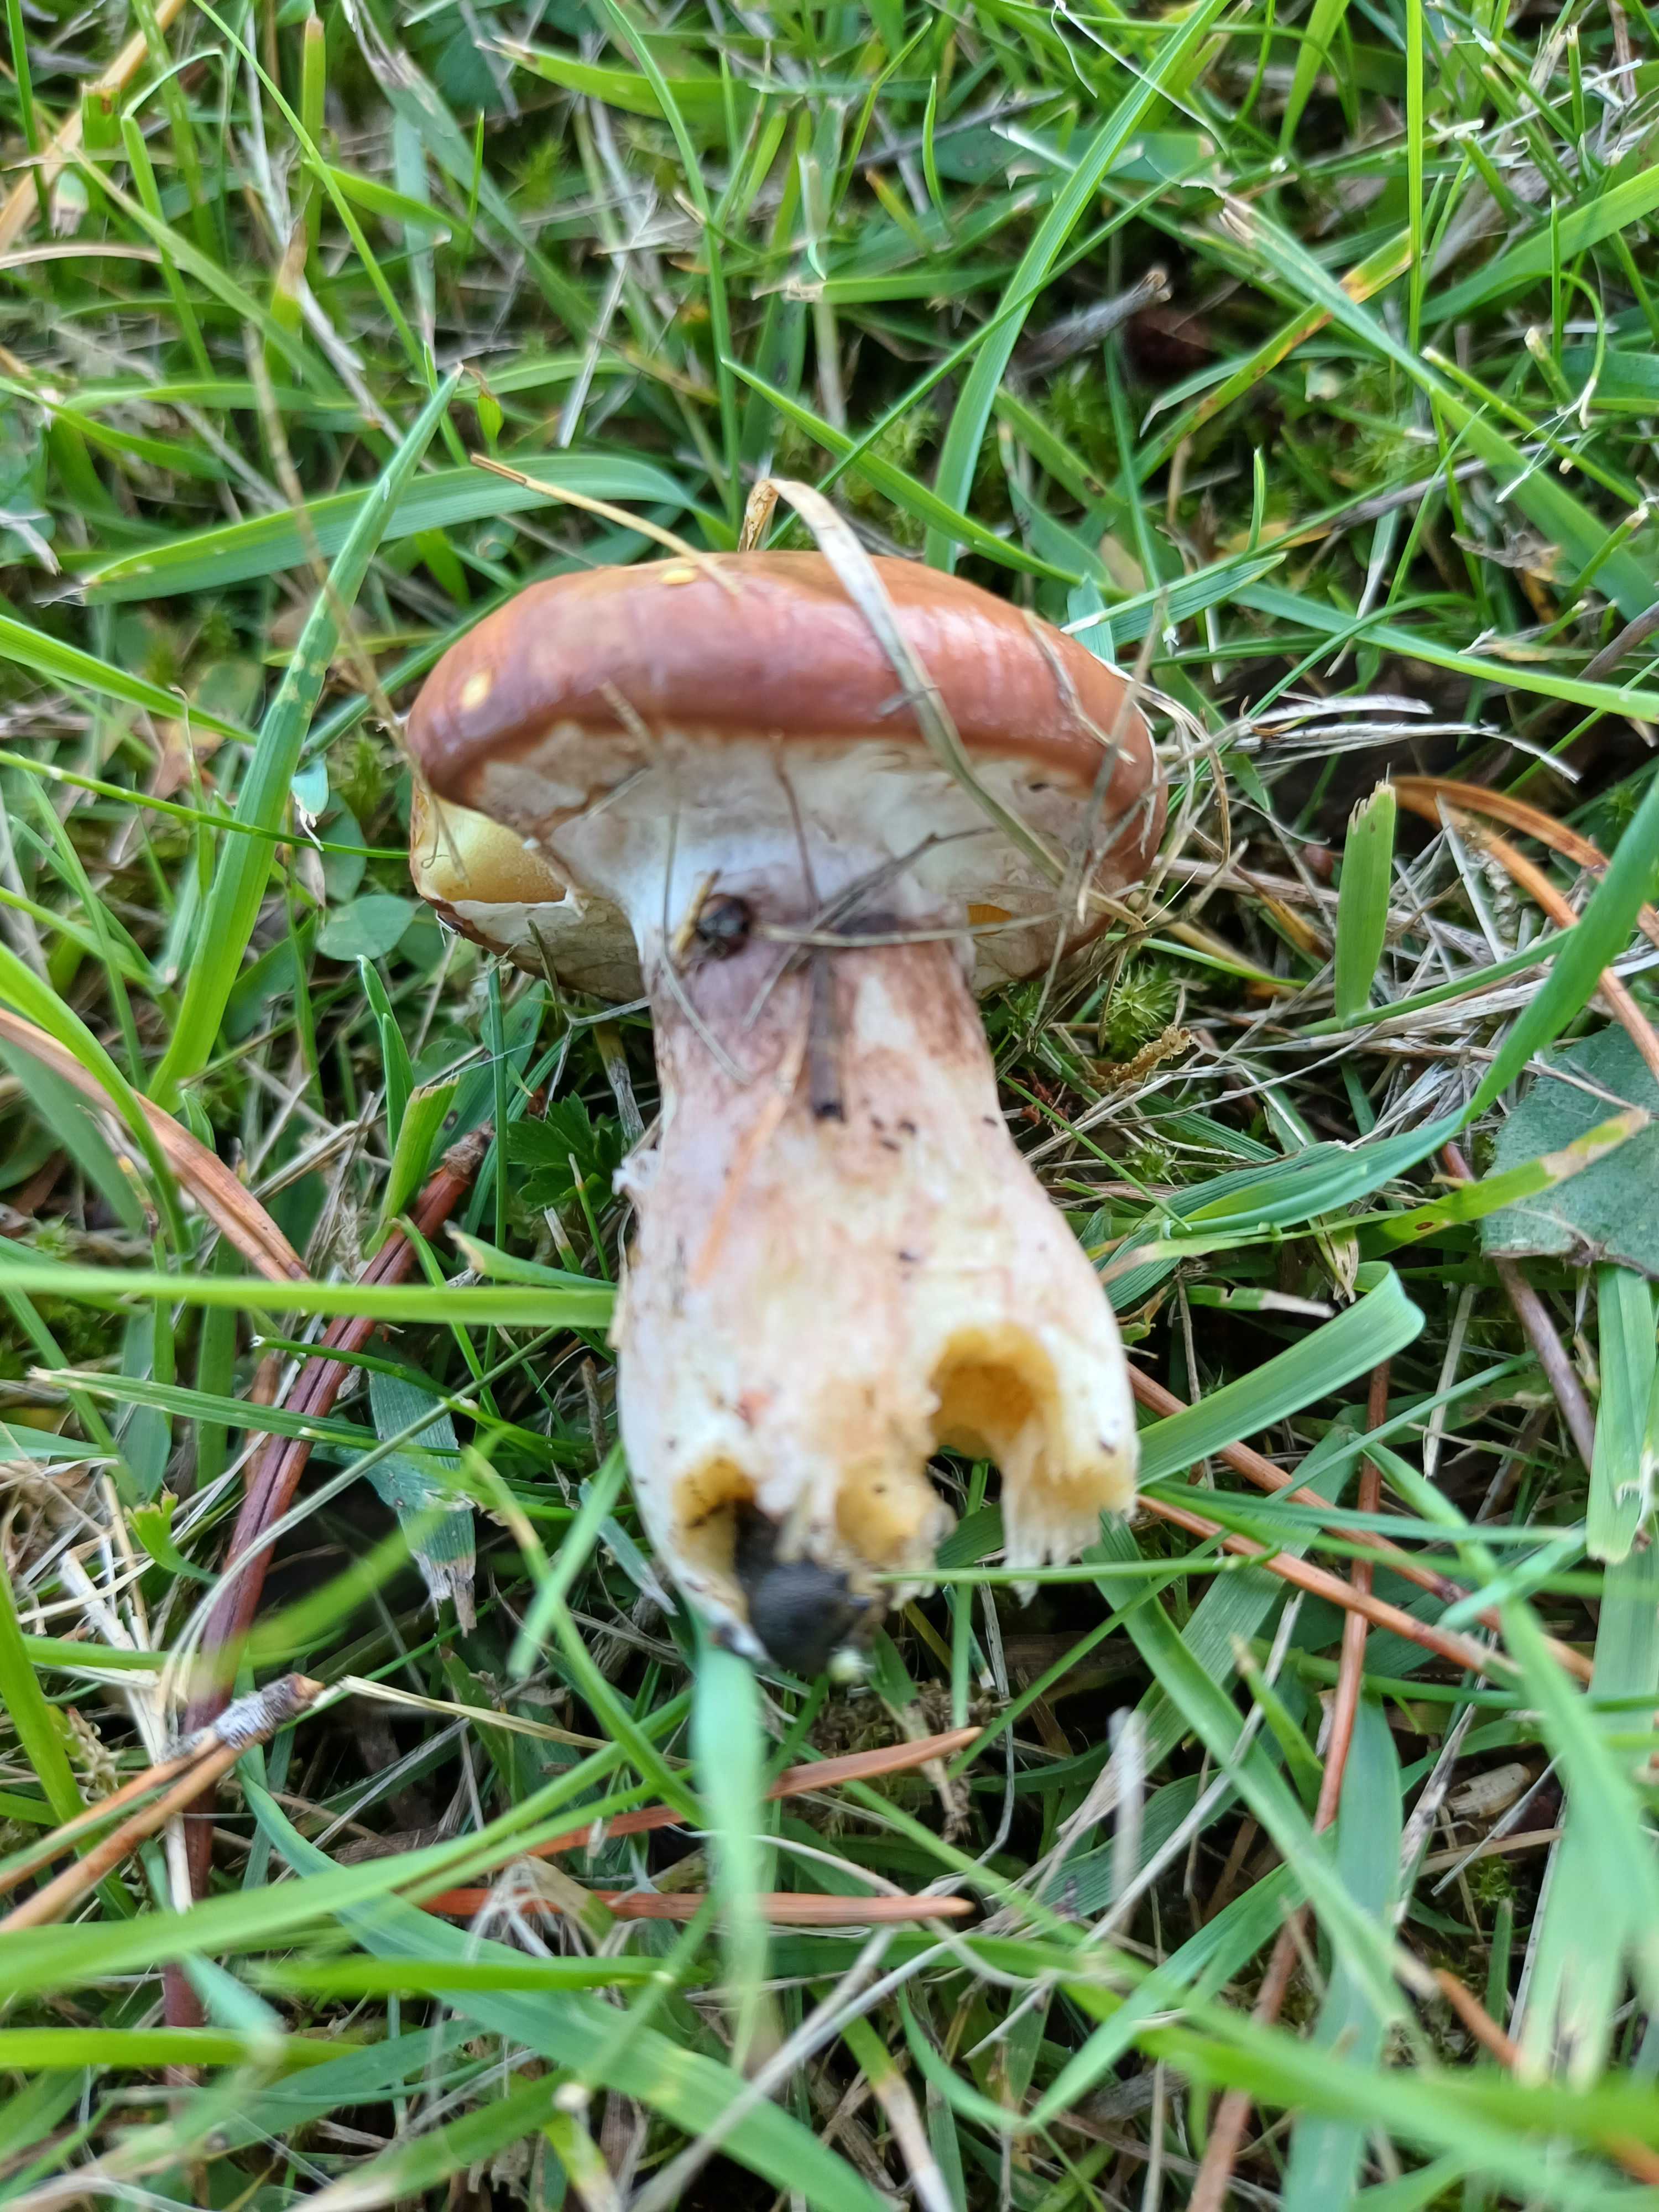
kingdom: Fungi
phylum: Basidiomycota
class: Agaricomycetes
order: Boletales
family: Suillaceae
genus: Suillus
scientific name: Suillus luteus
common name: brungul slimrørhat
